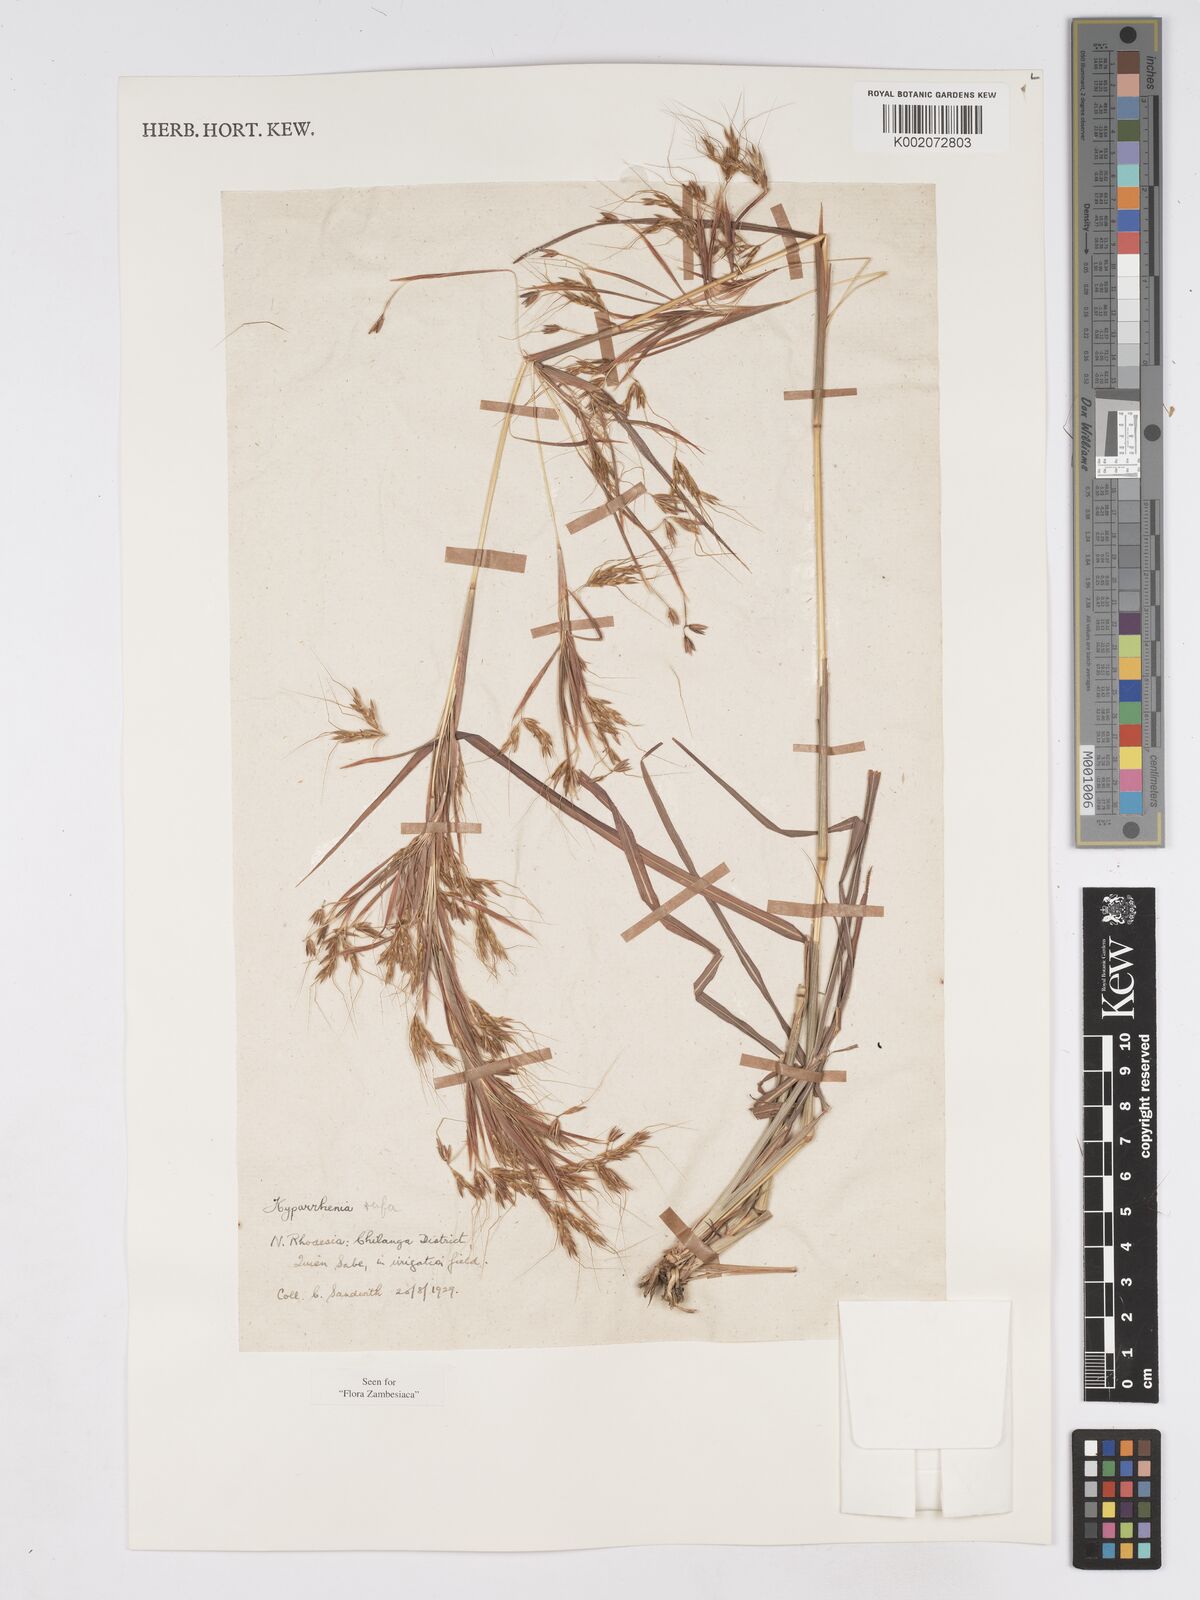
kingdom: Plantae
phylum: Tracheophyta
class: Liliopsida
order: Poales
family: Poaceae
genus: Hyparrhenia
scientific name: Hyparrhenia rufa
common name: Jaraguagrass
